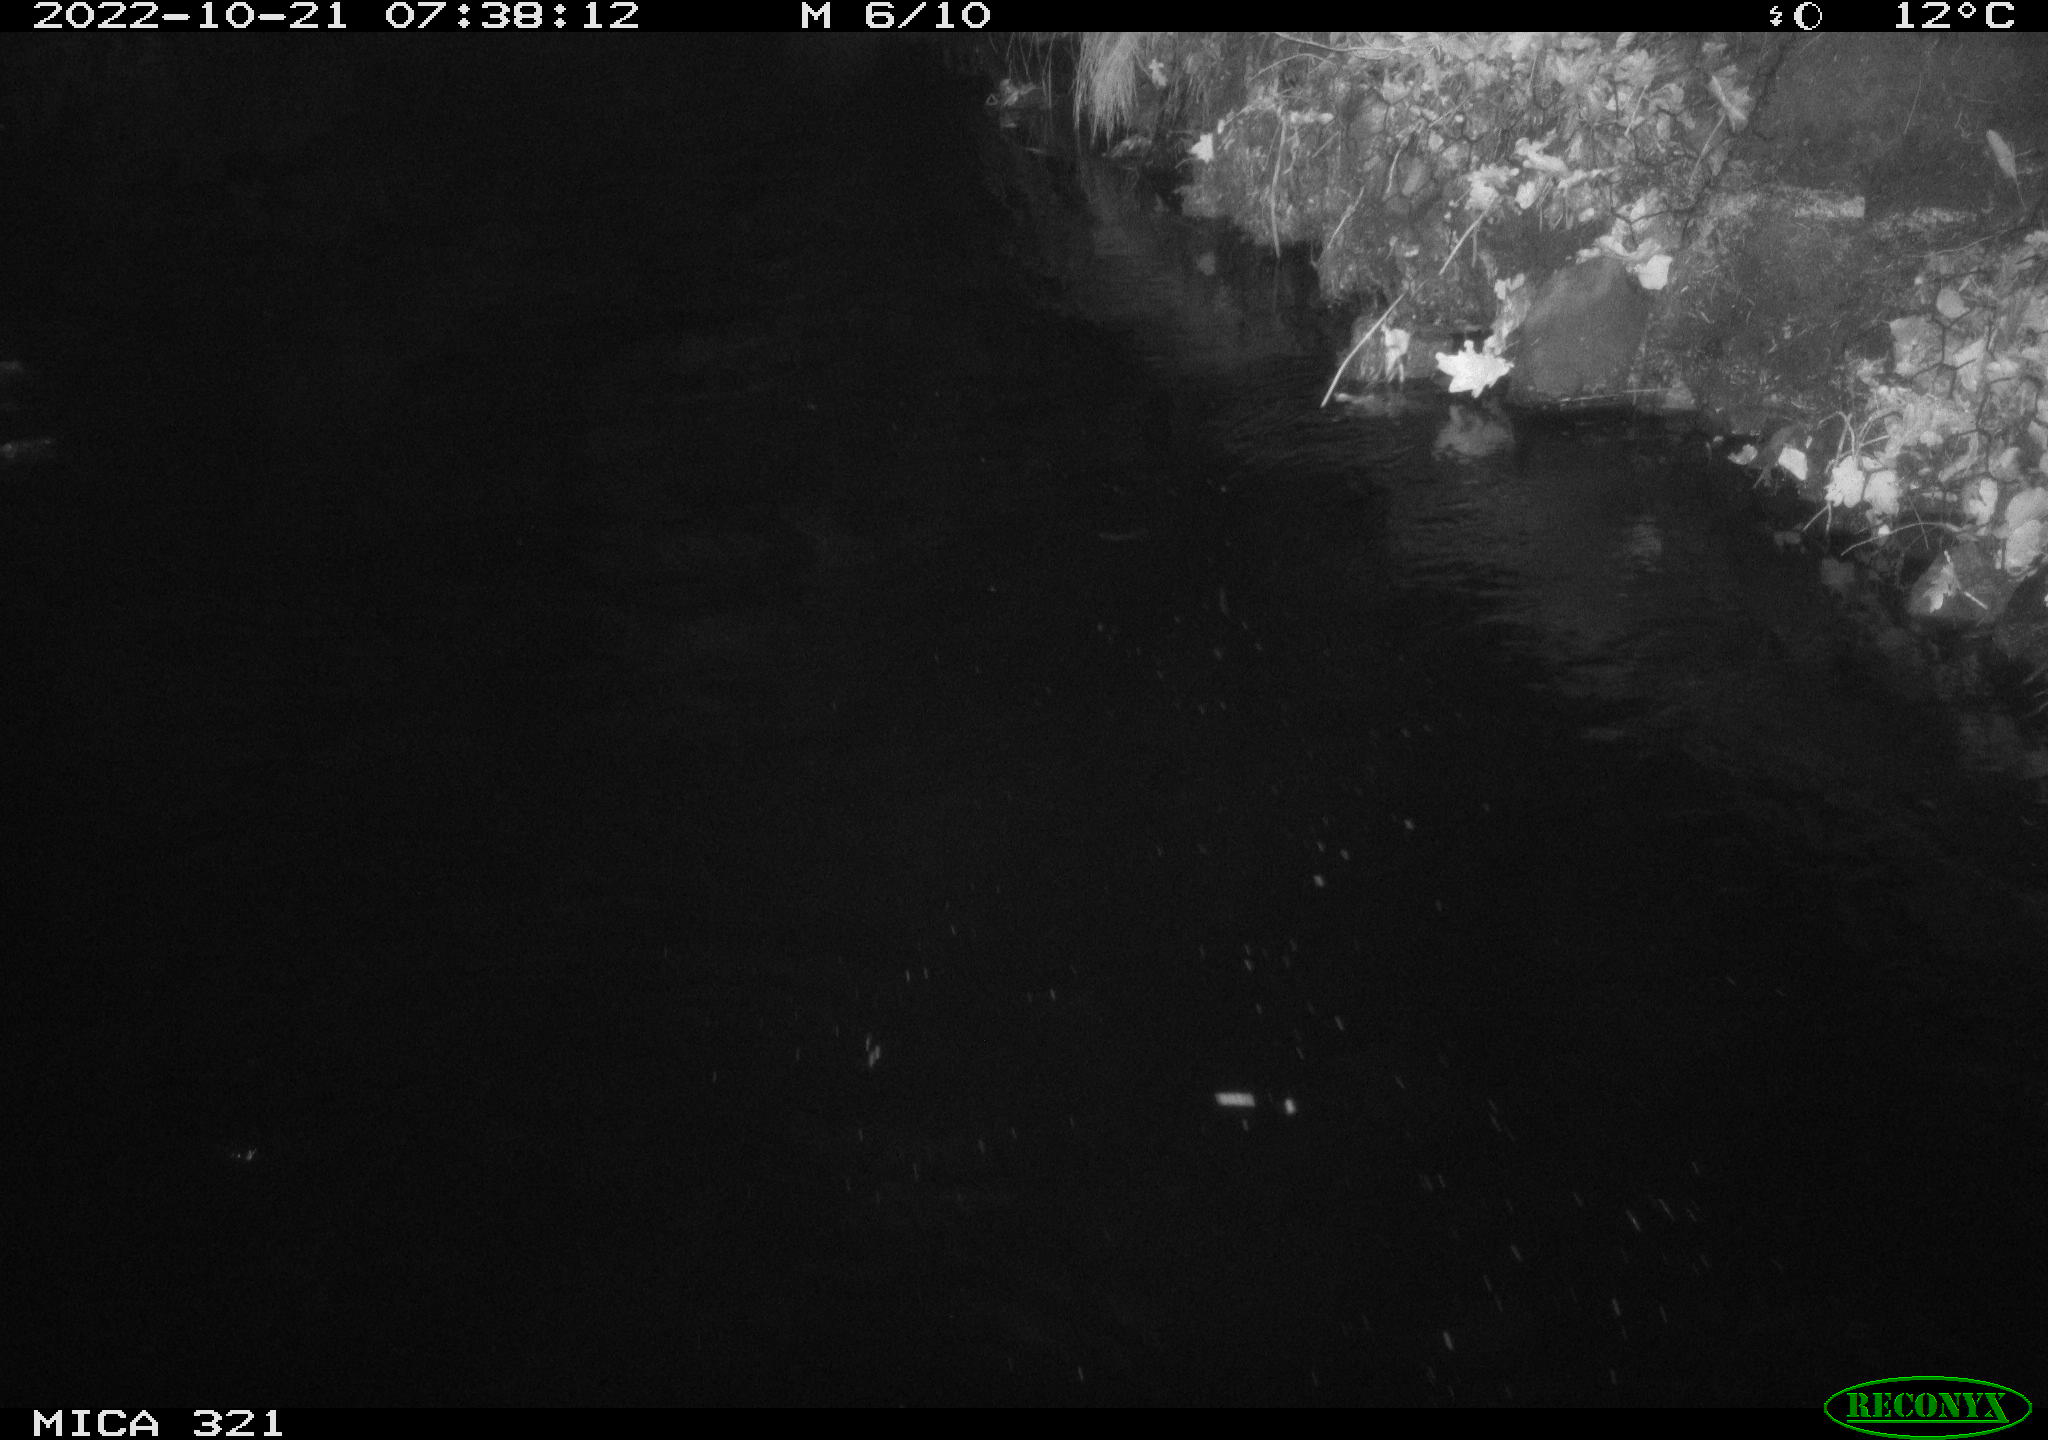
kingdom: Animalia
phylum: Chordata
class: Mammalia
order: Rodentia
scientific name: Rodentia
